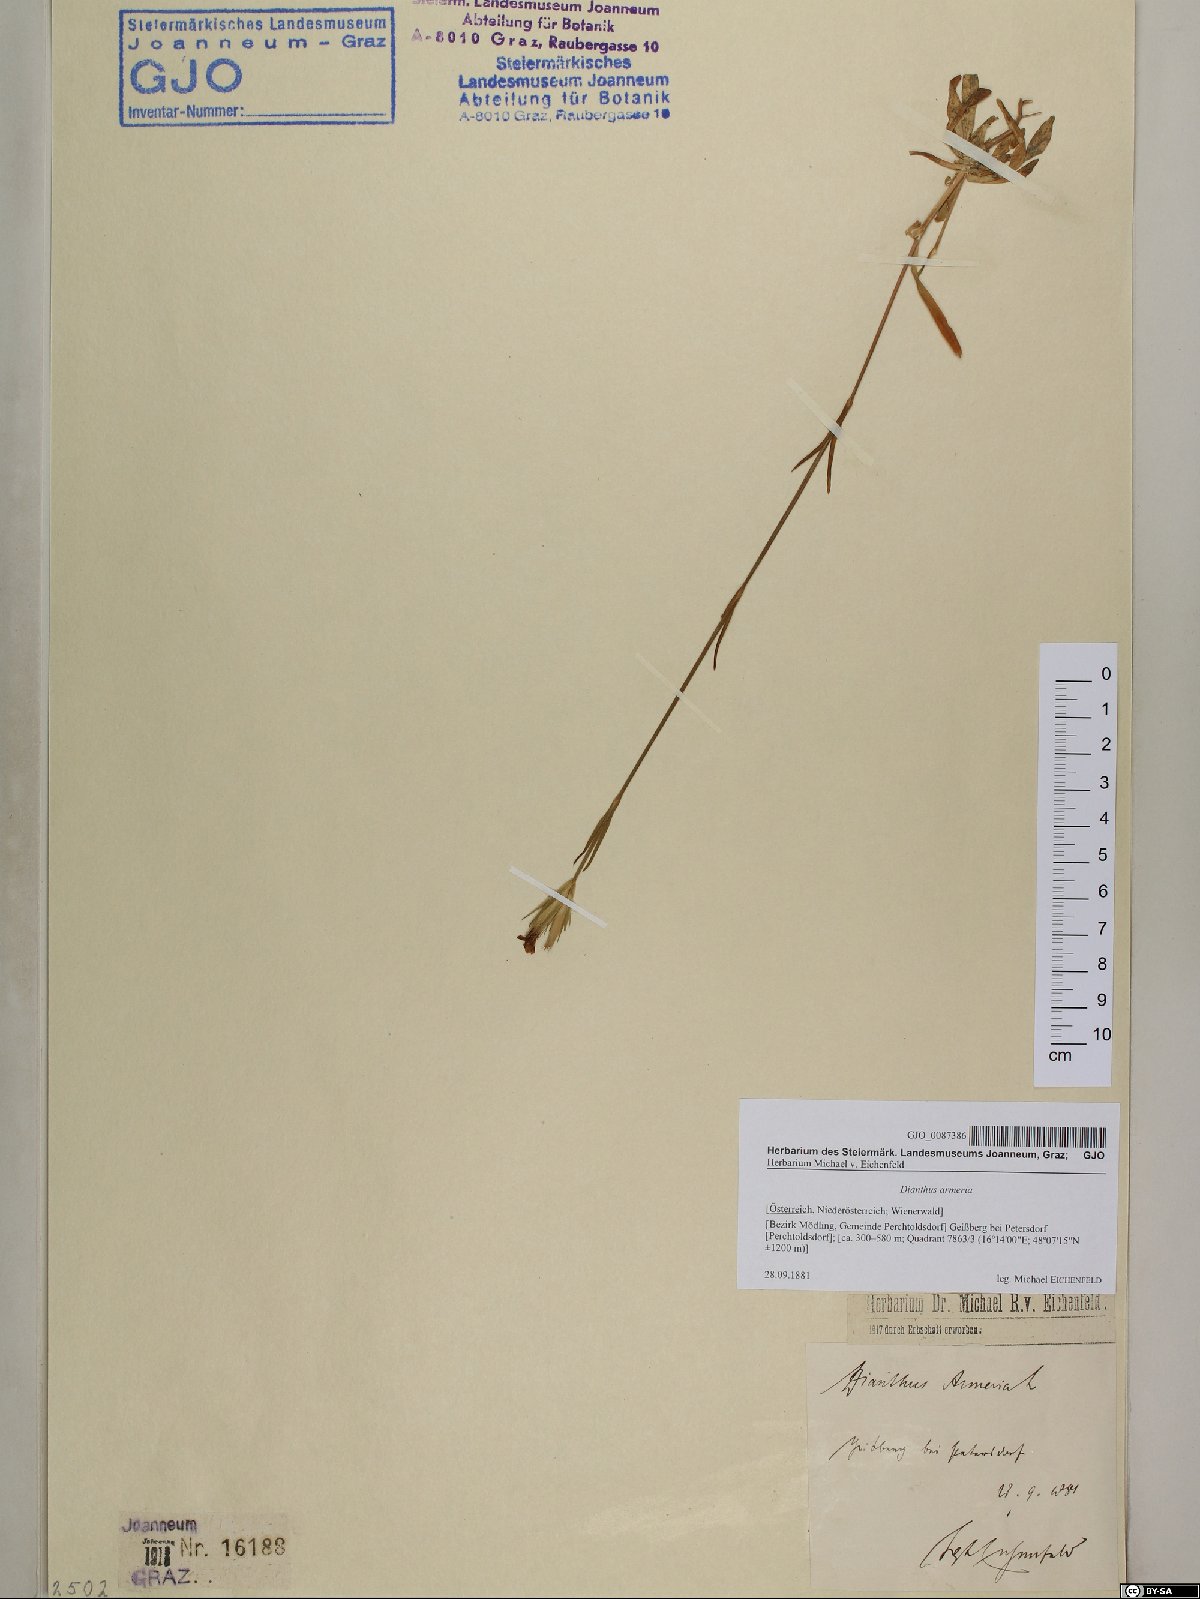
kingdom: Plantae
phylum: Tracheophyta
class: Magnoliopsida
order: Caryophyllales
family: Caryophyllaceae
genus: Dianthus
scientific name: Dianthus armeria
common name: Deptford pink
